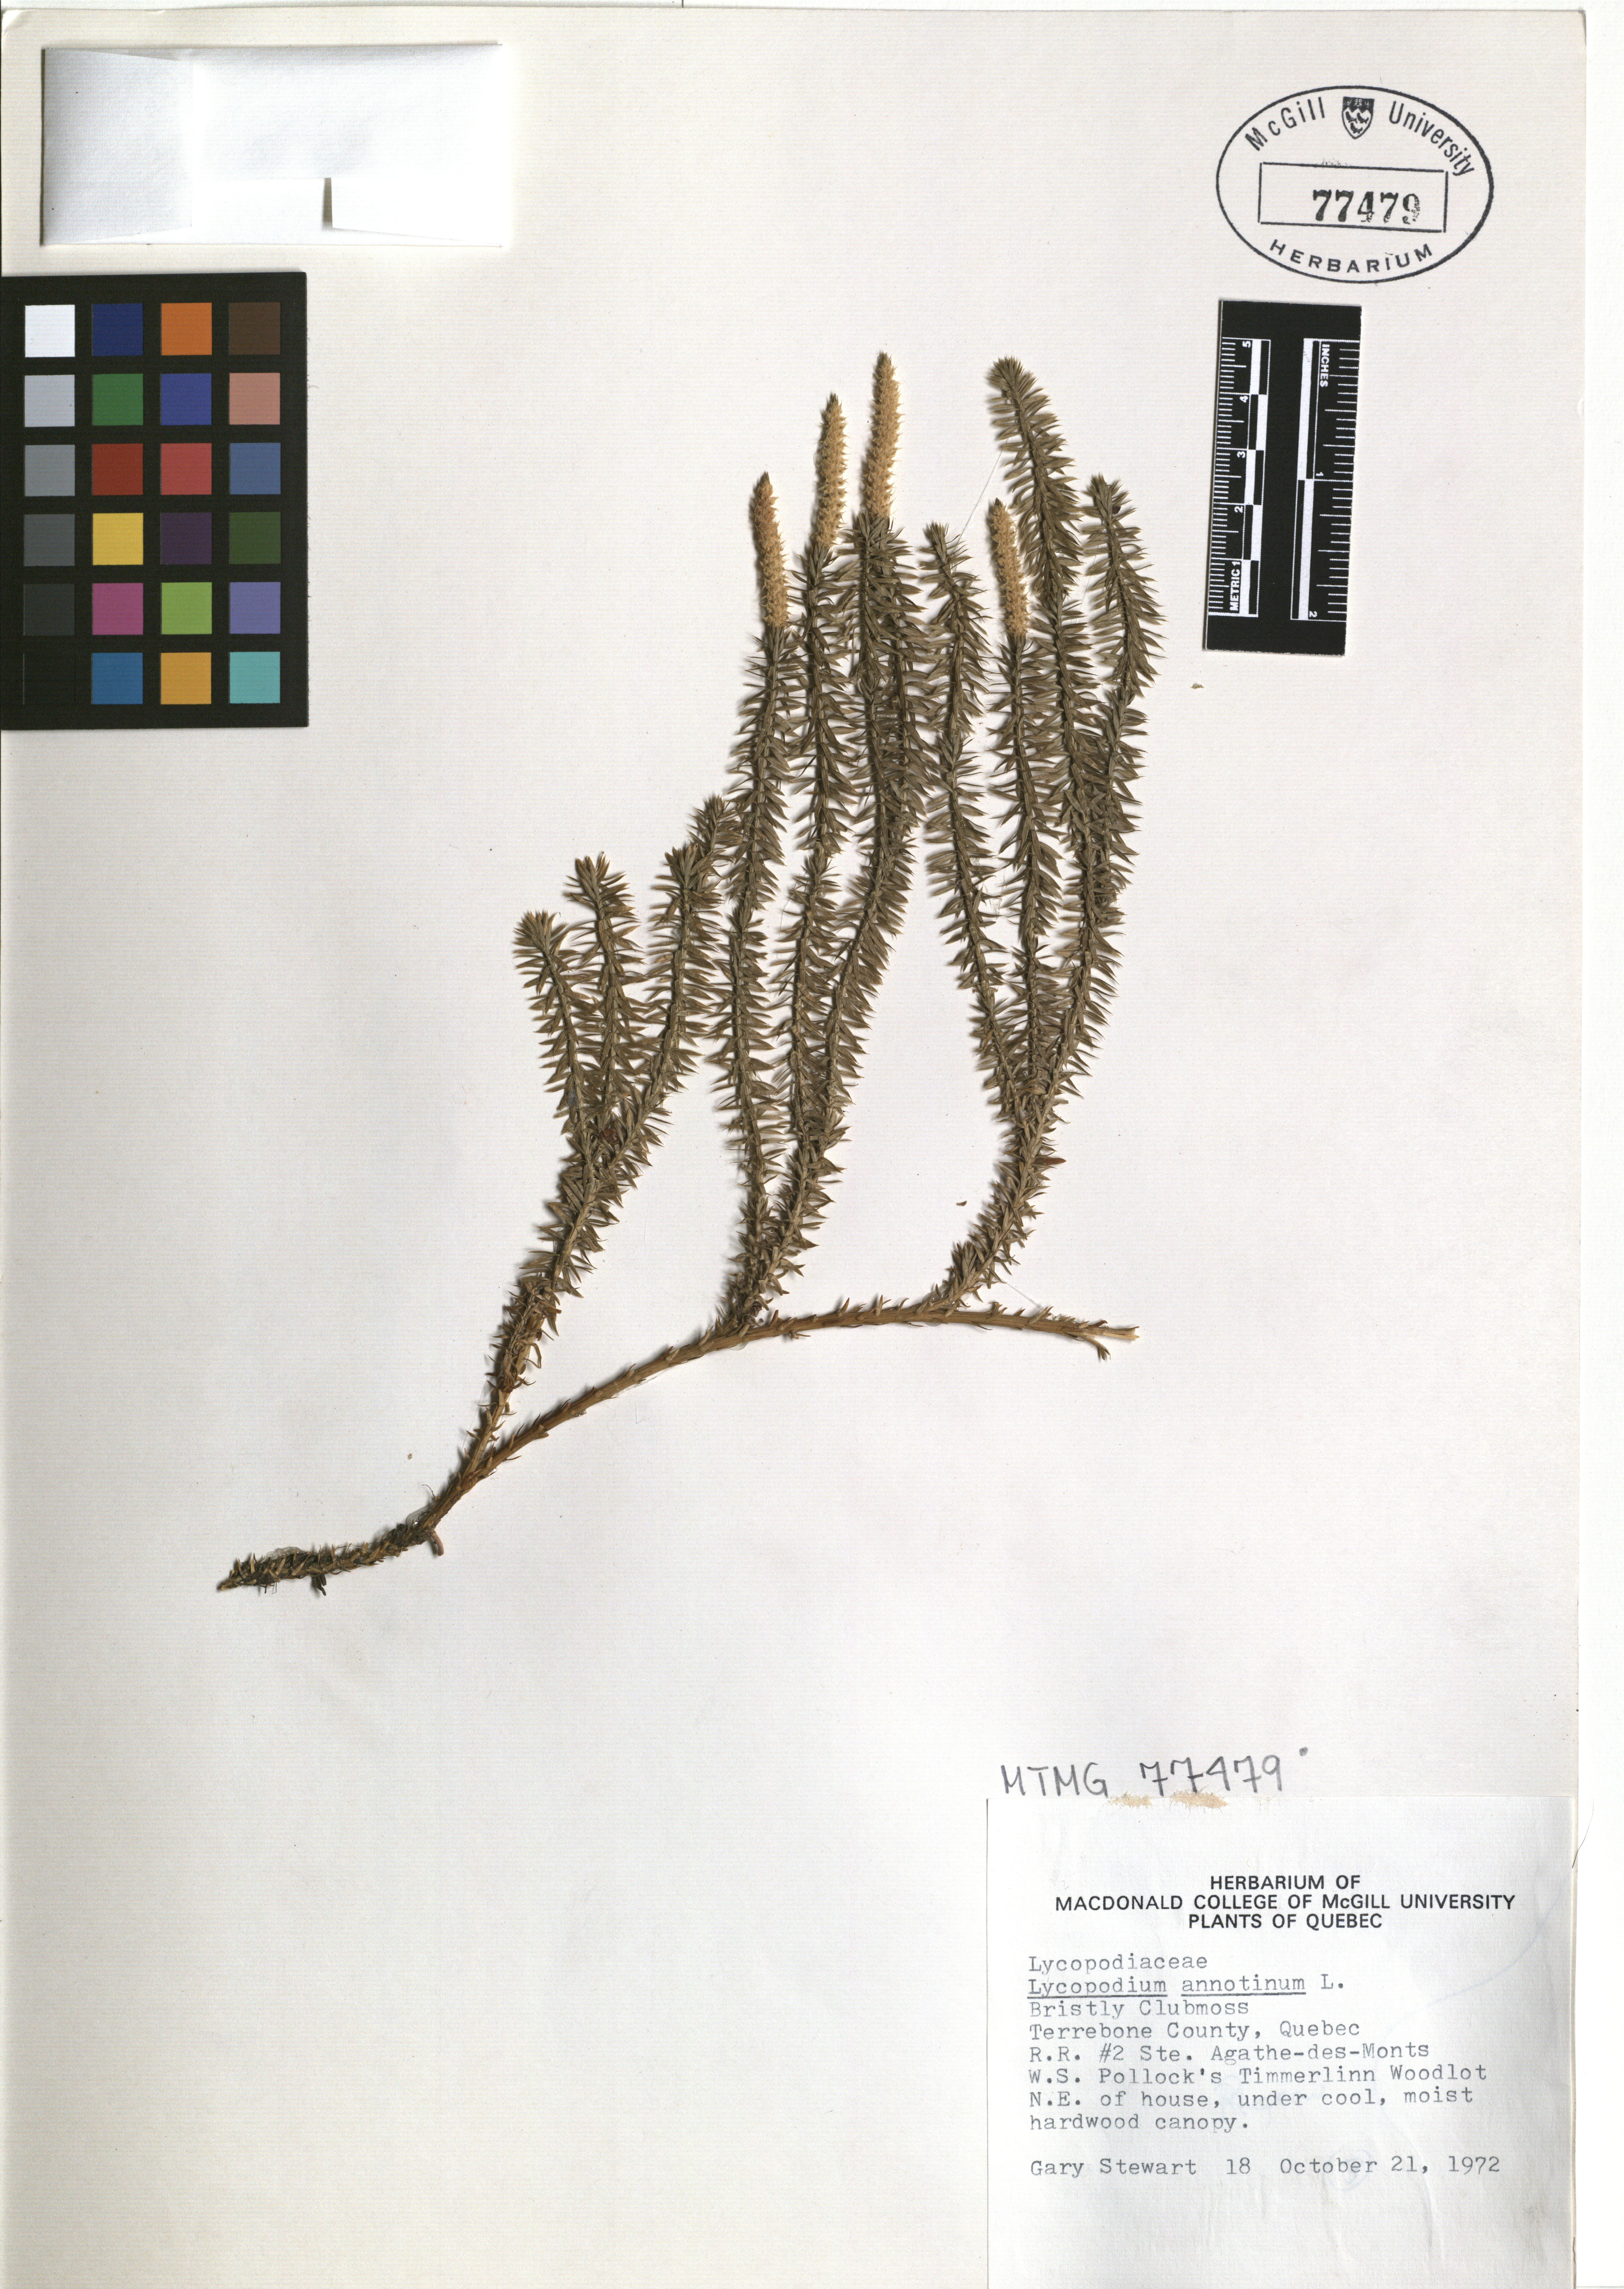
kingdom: Plantae
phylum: Tracheophyta
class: Lycopodiopsida
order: Lycopodiales
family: Lycopodiaceae
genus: Spinulum
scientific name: Spinulum annotinum
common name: Interrupted club-moss
